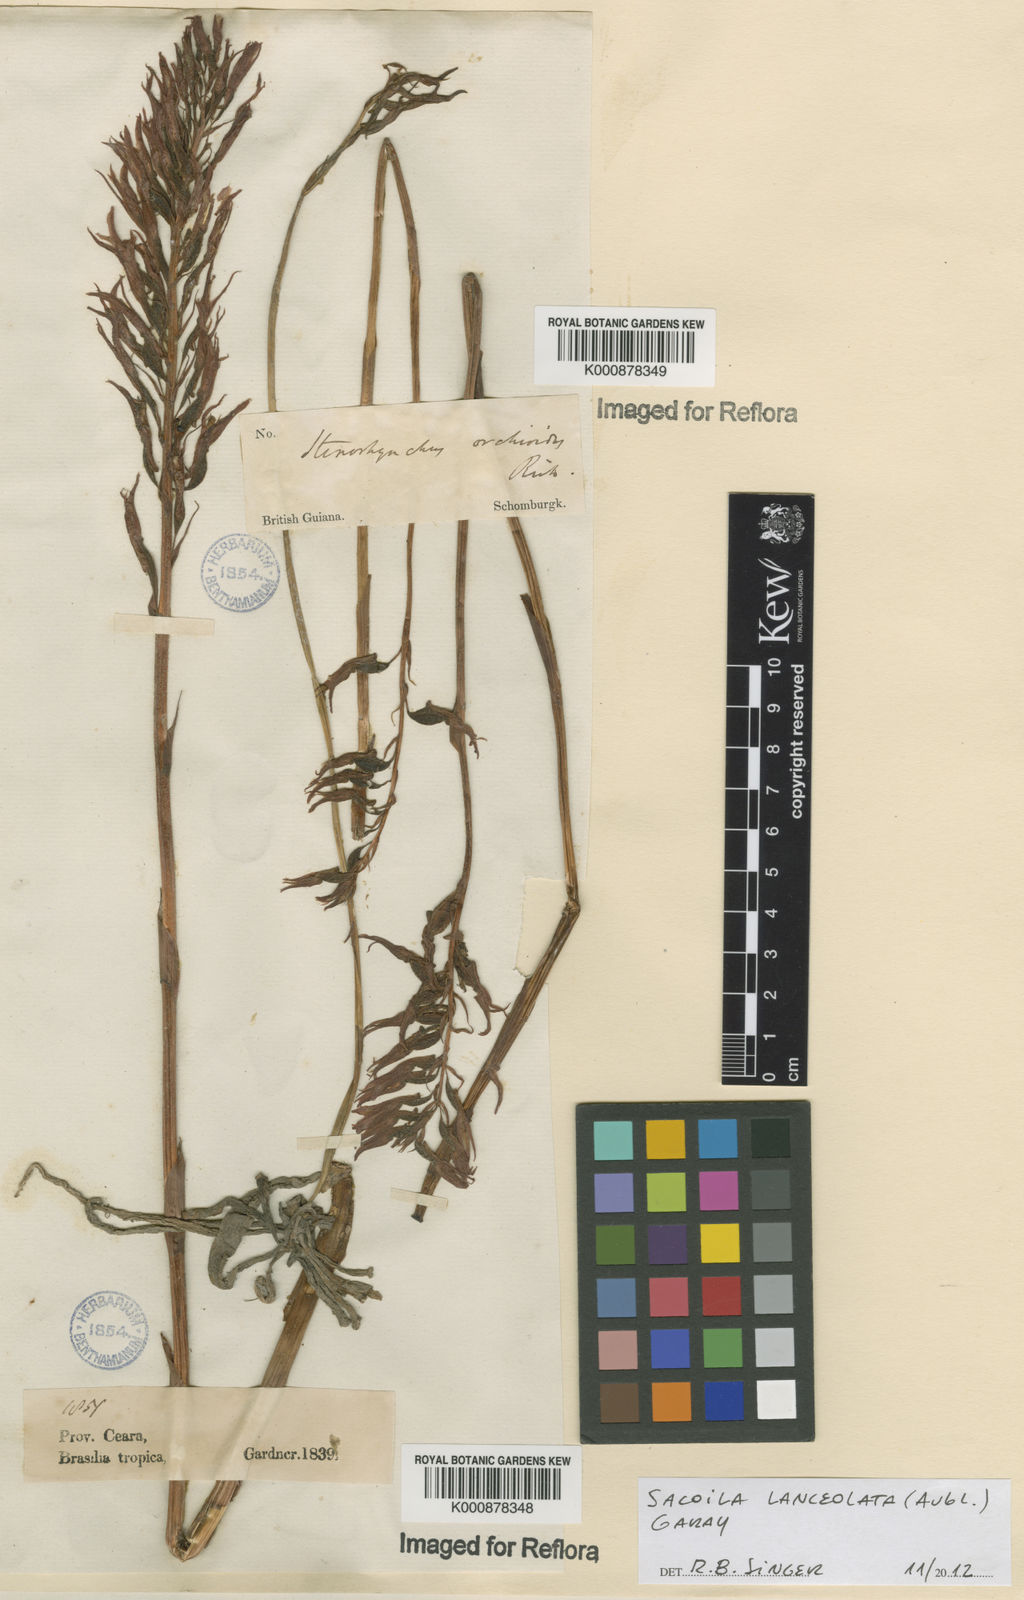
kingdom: Plantae
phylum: Tracheophyta
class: Liliopsida
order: Asparagales
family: Orchidaceae
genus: Sacoila
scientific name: Sacoila lanceolata
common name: Leafless beaked ladiestresses
